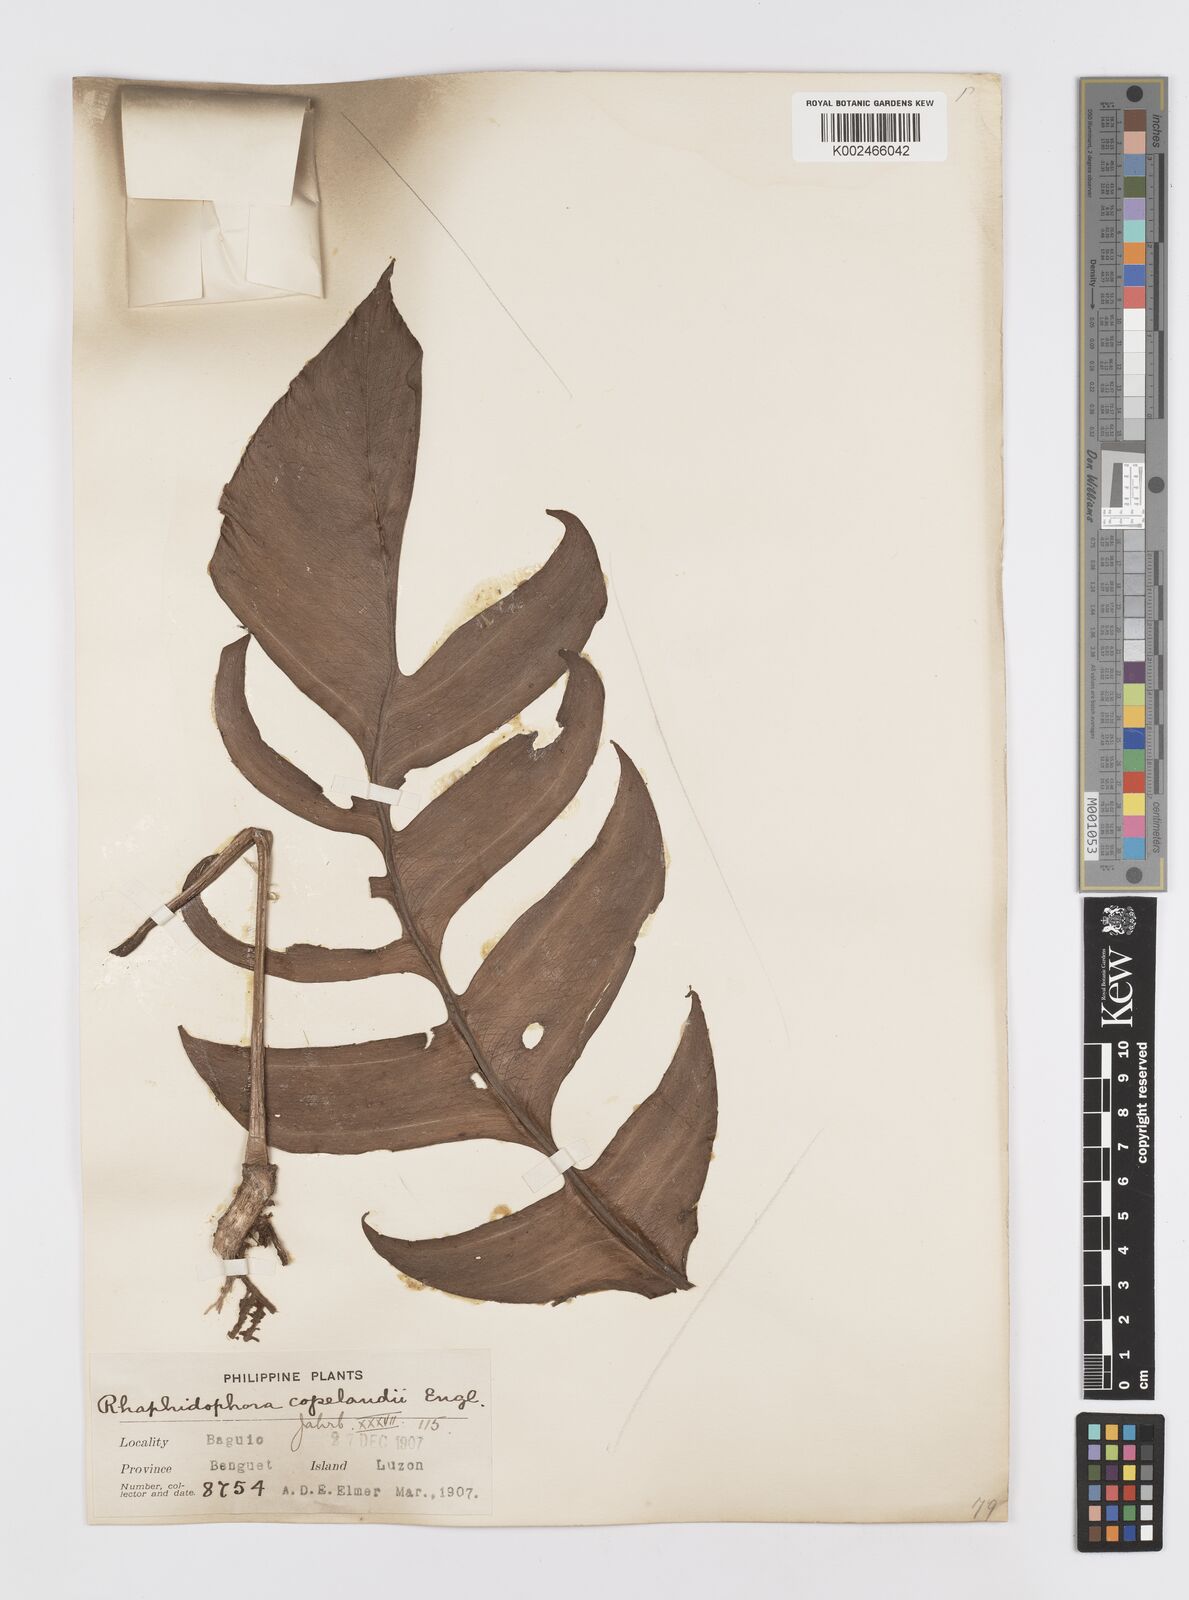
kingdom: Plantae
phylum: Tracheophyta
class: Liliopsida
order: Alismatales
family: Araceae
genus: Rhaphidophora
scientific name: Rhaphidophora korthalsii
